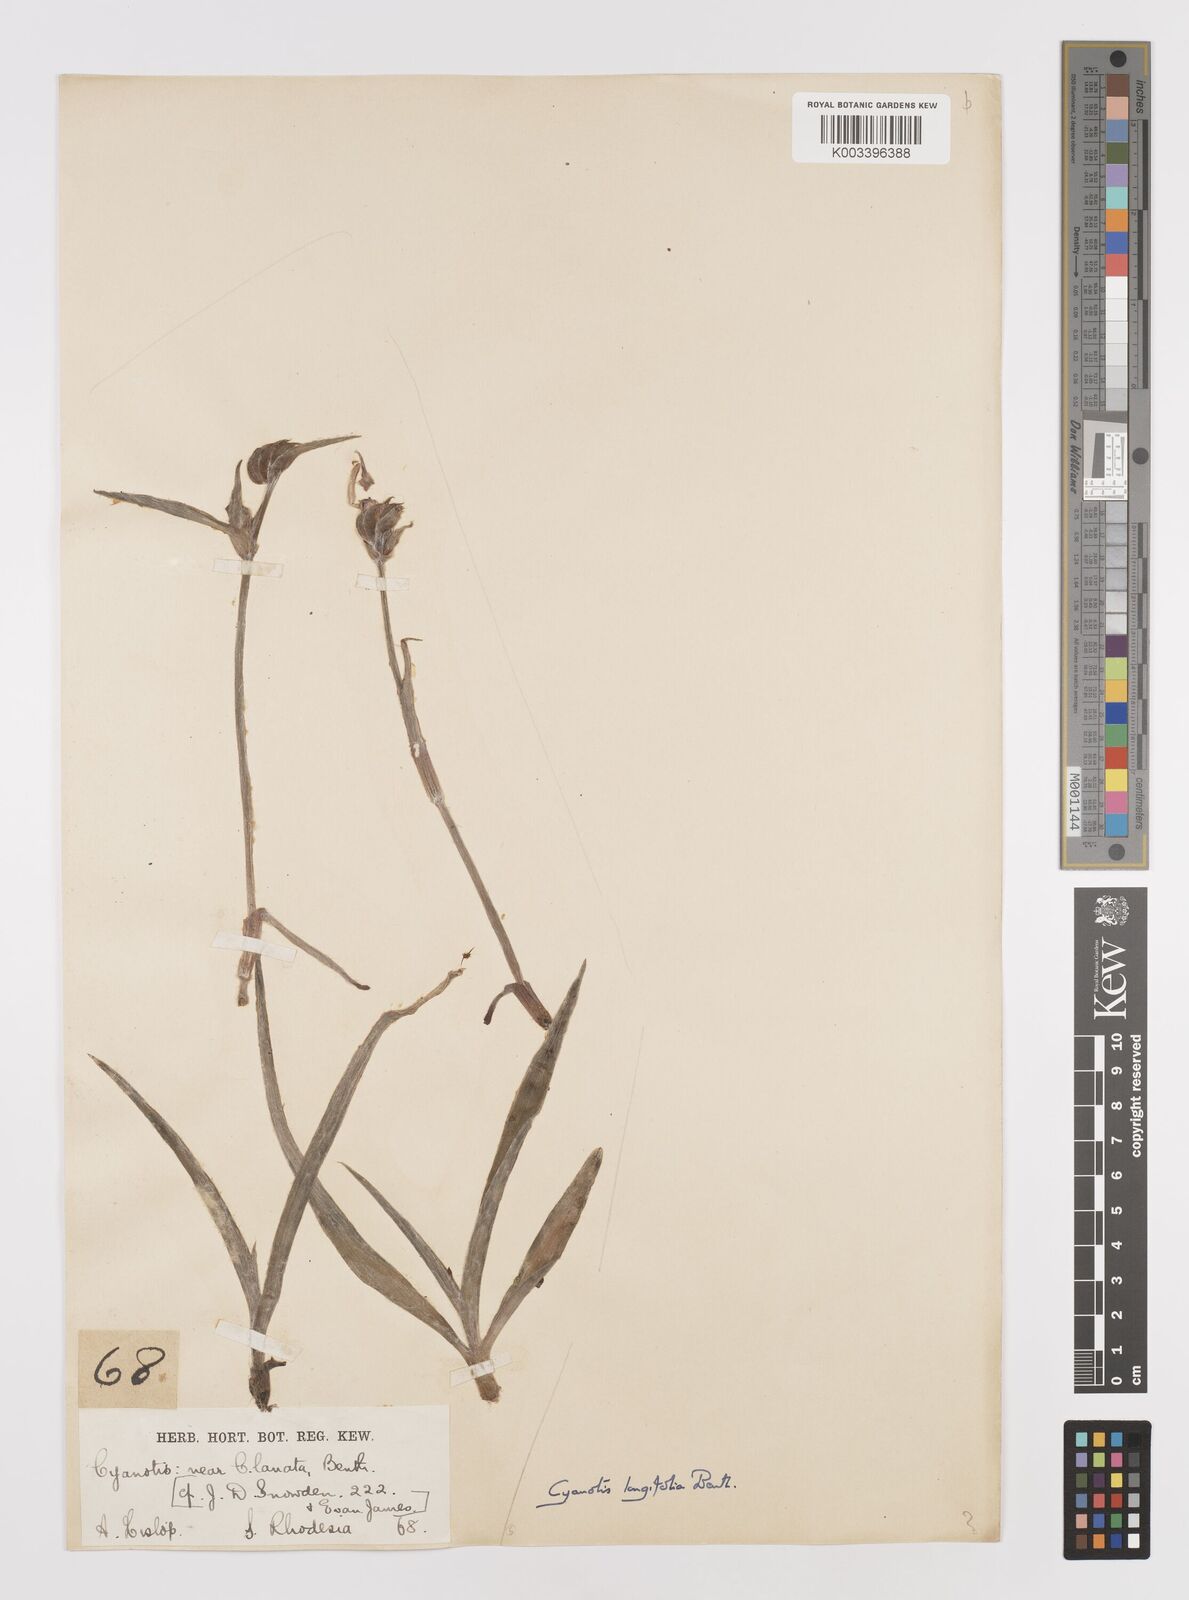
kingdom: Plantae
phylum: Tracheophyta
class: Liliopsida
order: Commelinales
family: Commelinaceae
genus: Cyanotis
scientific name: Cyanotis longifolia
